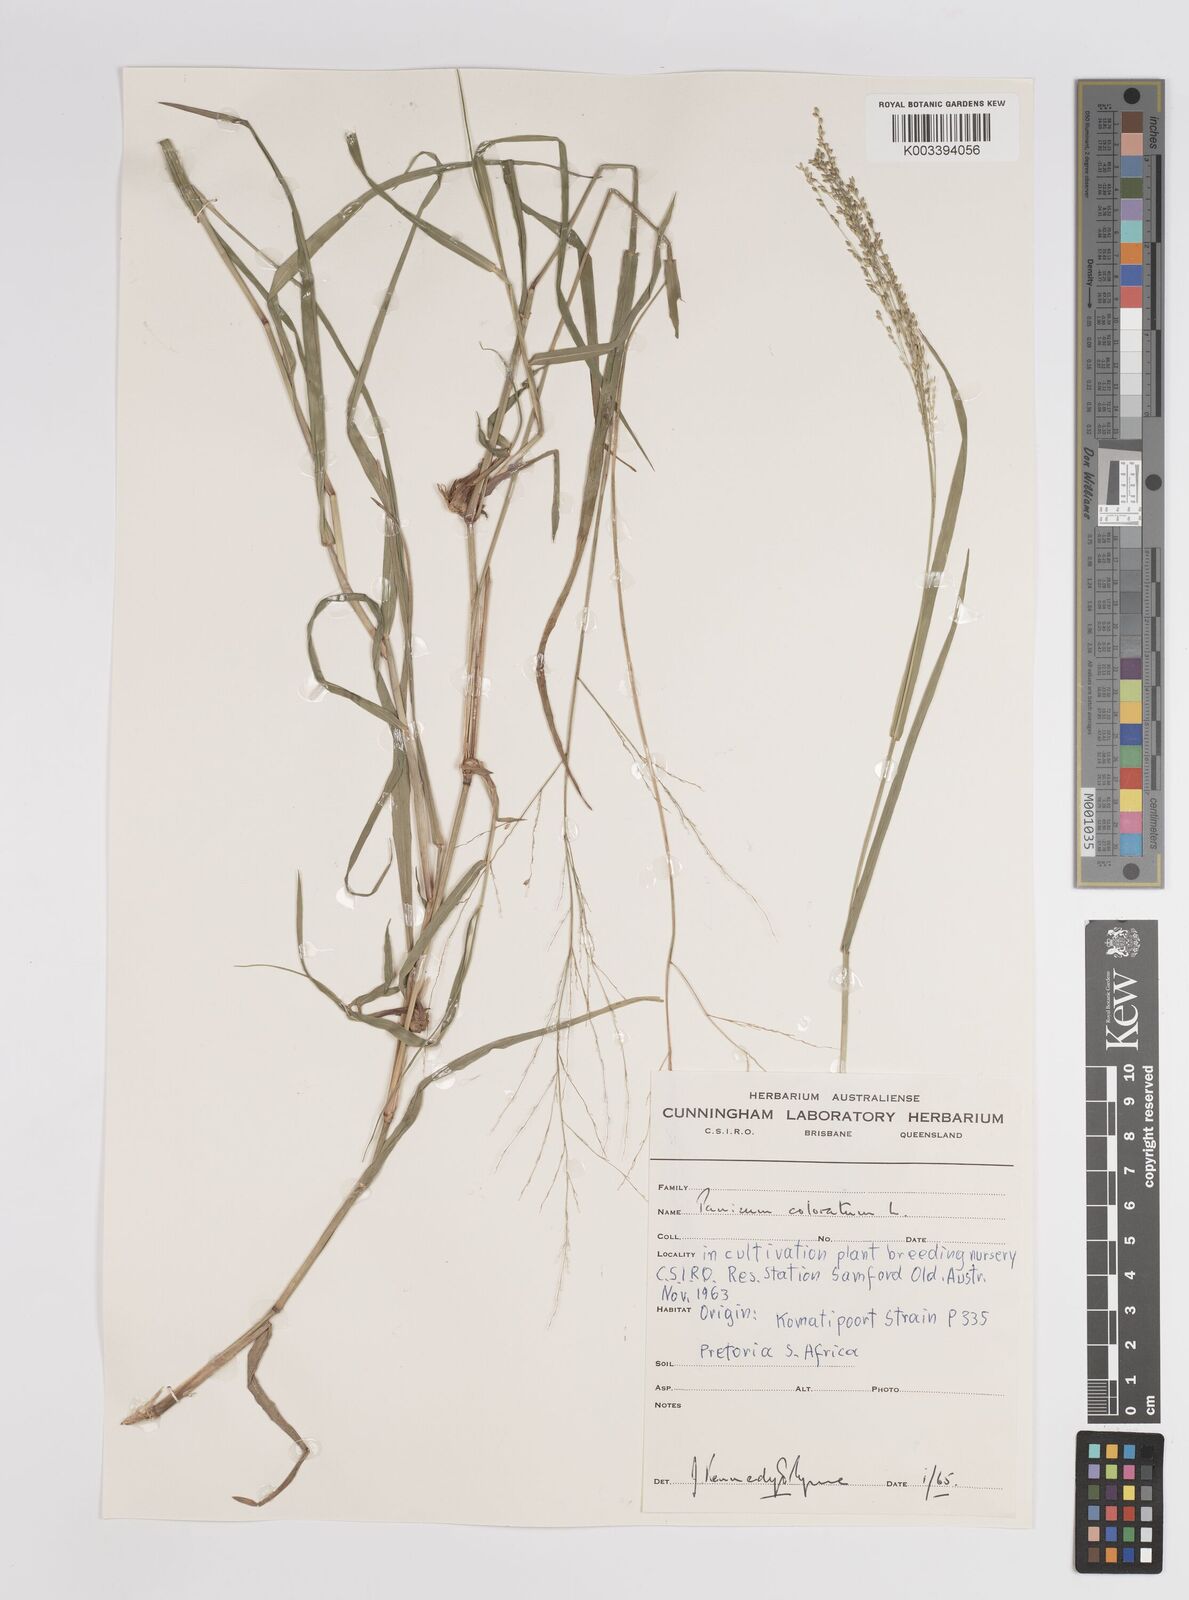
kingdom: Plantae
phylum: Tracheophyta
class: Liliopsida
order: Poales
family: Poaceae
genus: Panicum
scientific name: Panicum coloratum
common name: Kleingrass
